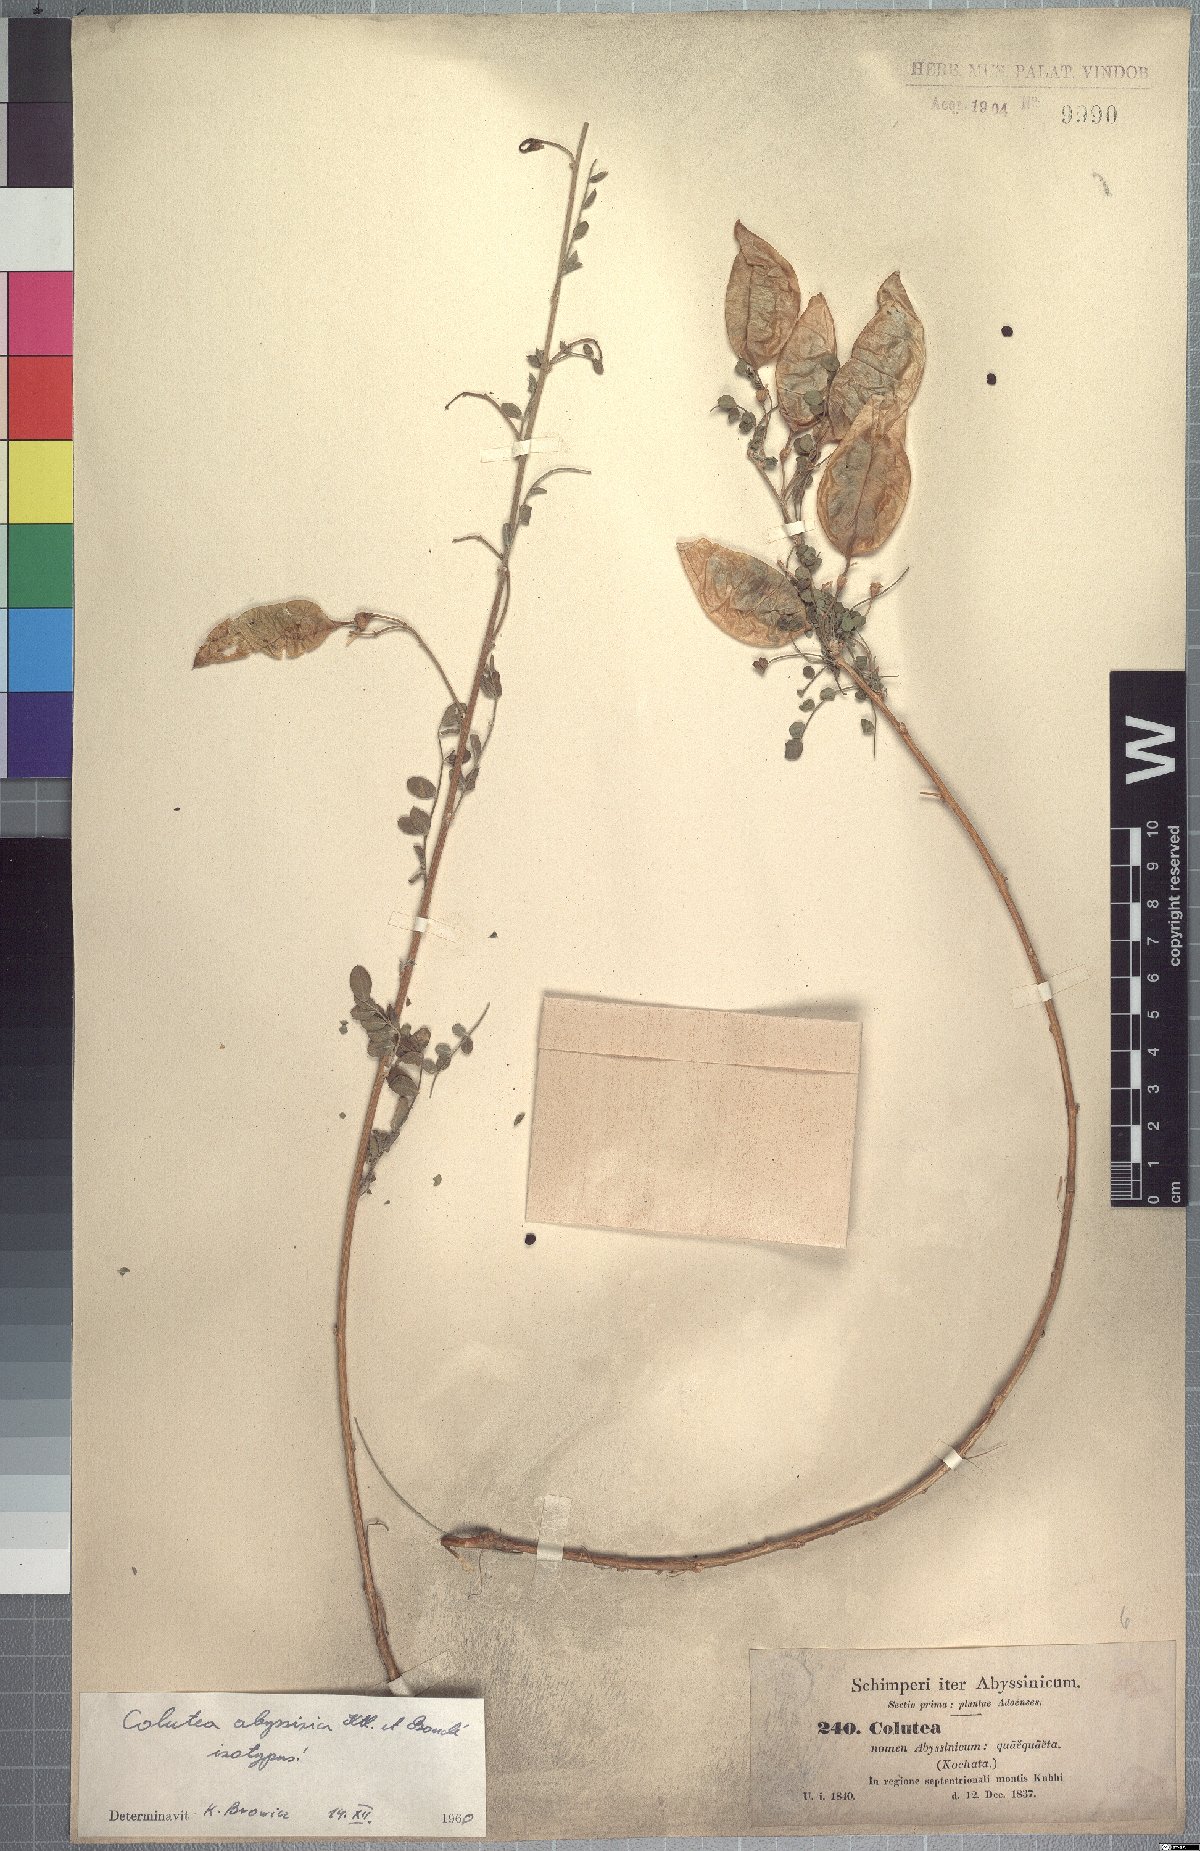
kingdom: Plantae
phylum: Tracheophyta
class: Magnoliopsida
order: Fabales
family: Fabaceae
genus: Colutea
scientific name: Colutea abyssinica
